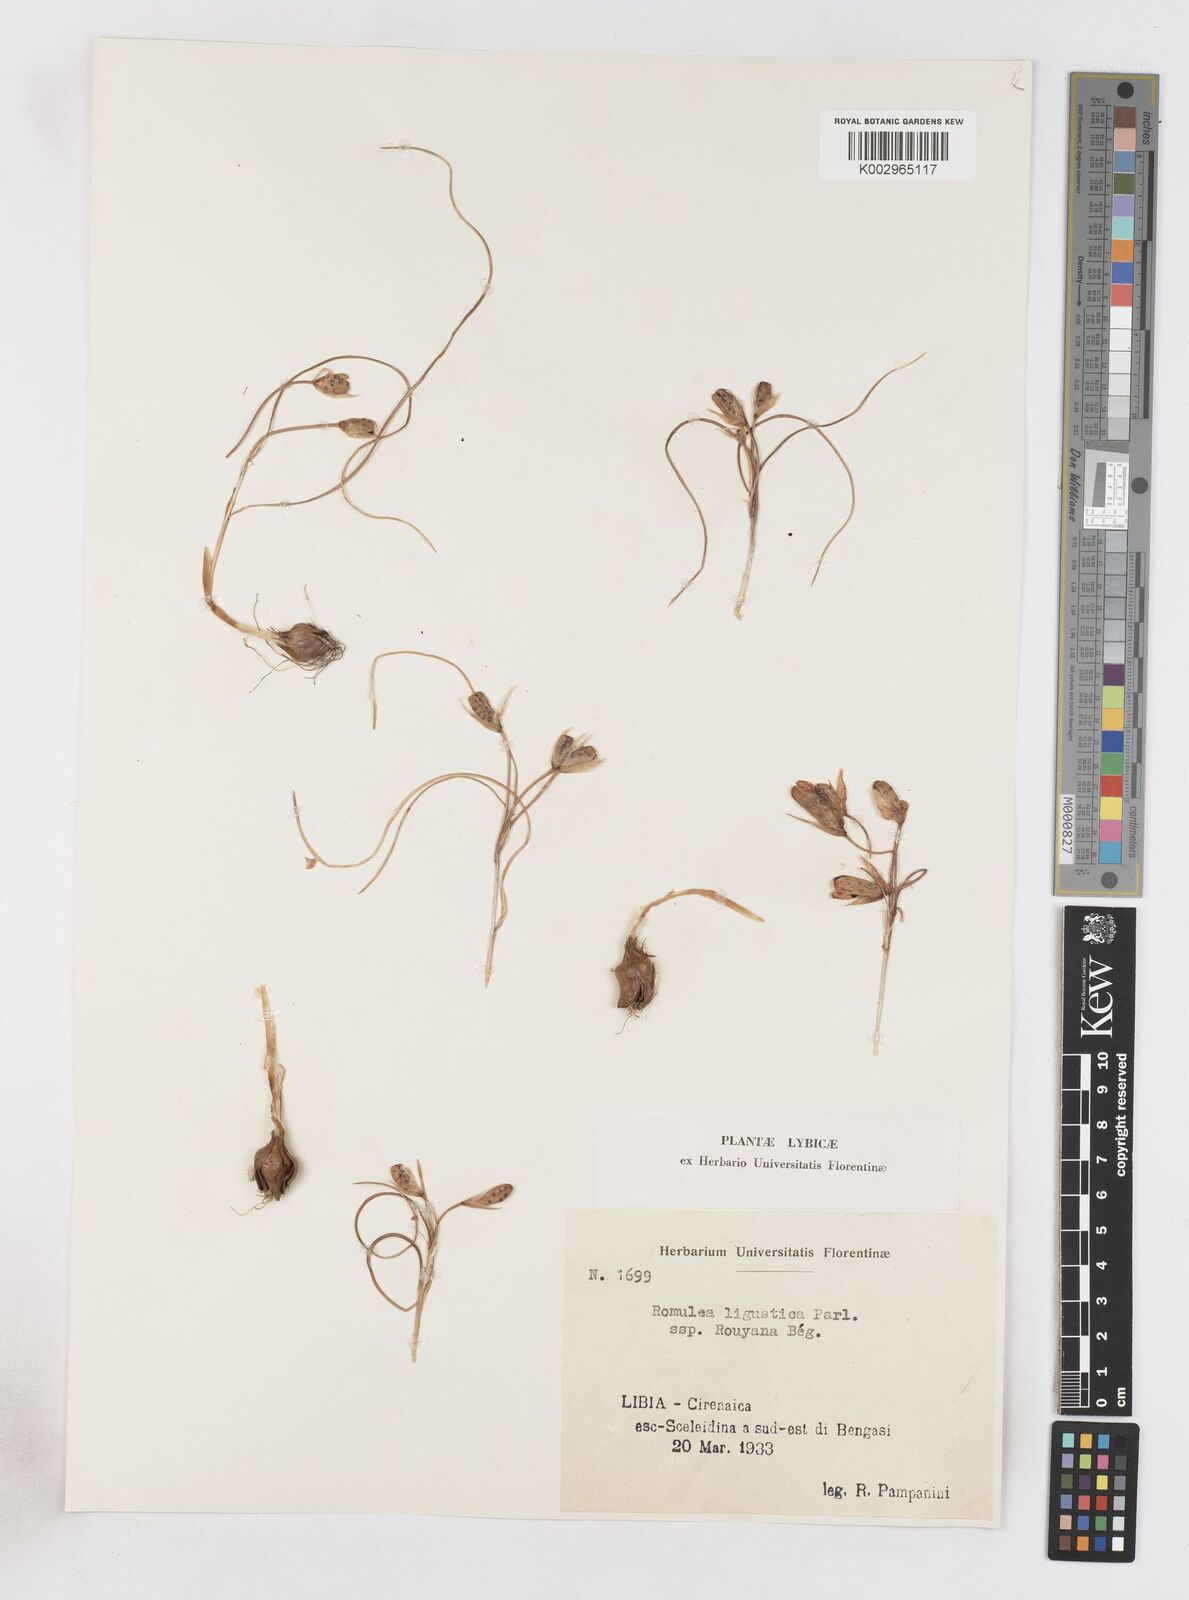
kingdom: Plantae
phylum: Tracheophyta
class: Liliopsida
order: Asparagales
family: Iridaceae
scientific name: Iridaceae
